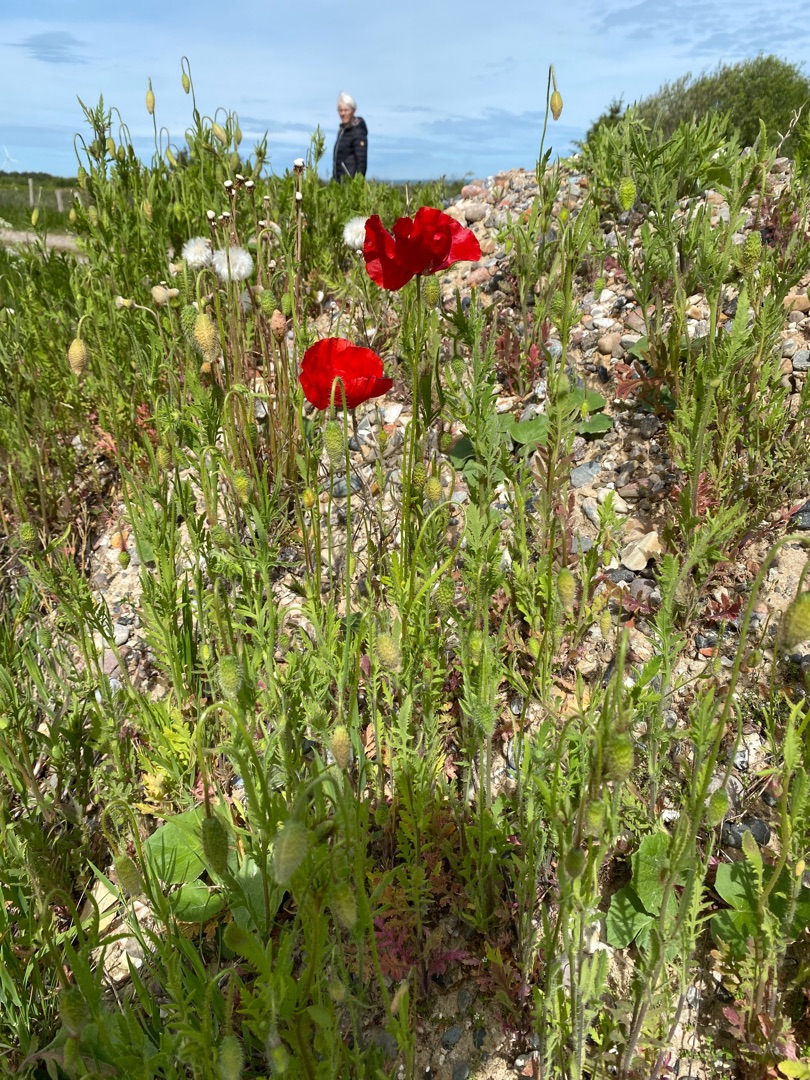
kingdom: Plantae
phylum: Tracheophyta
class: Magnoliopsida
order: Ranunculales
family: Papaveraceae
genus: Papaver
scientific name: Papaver rhoeas
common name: Korn-valmue
